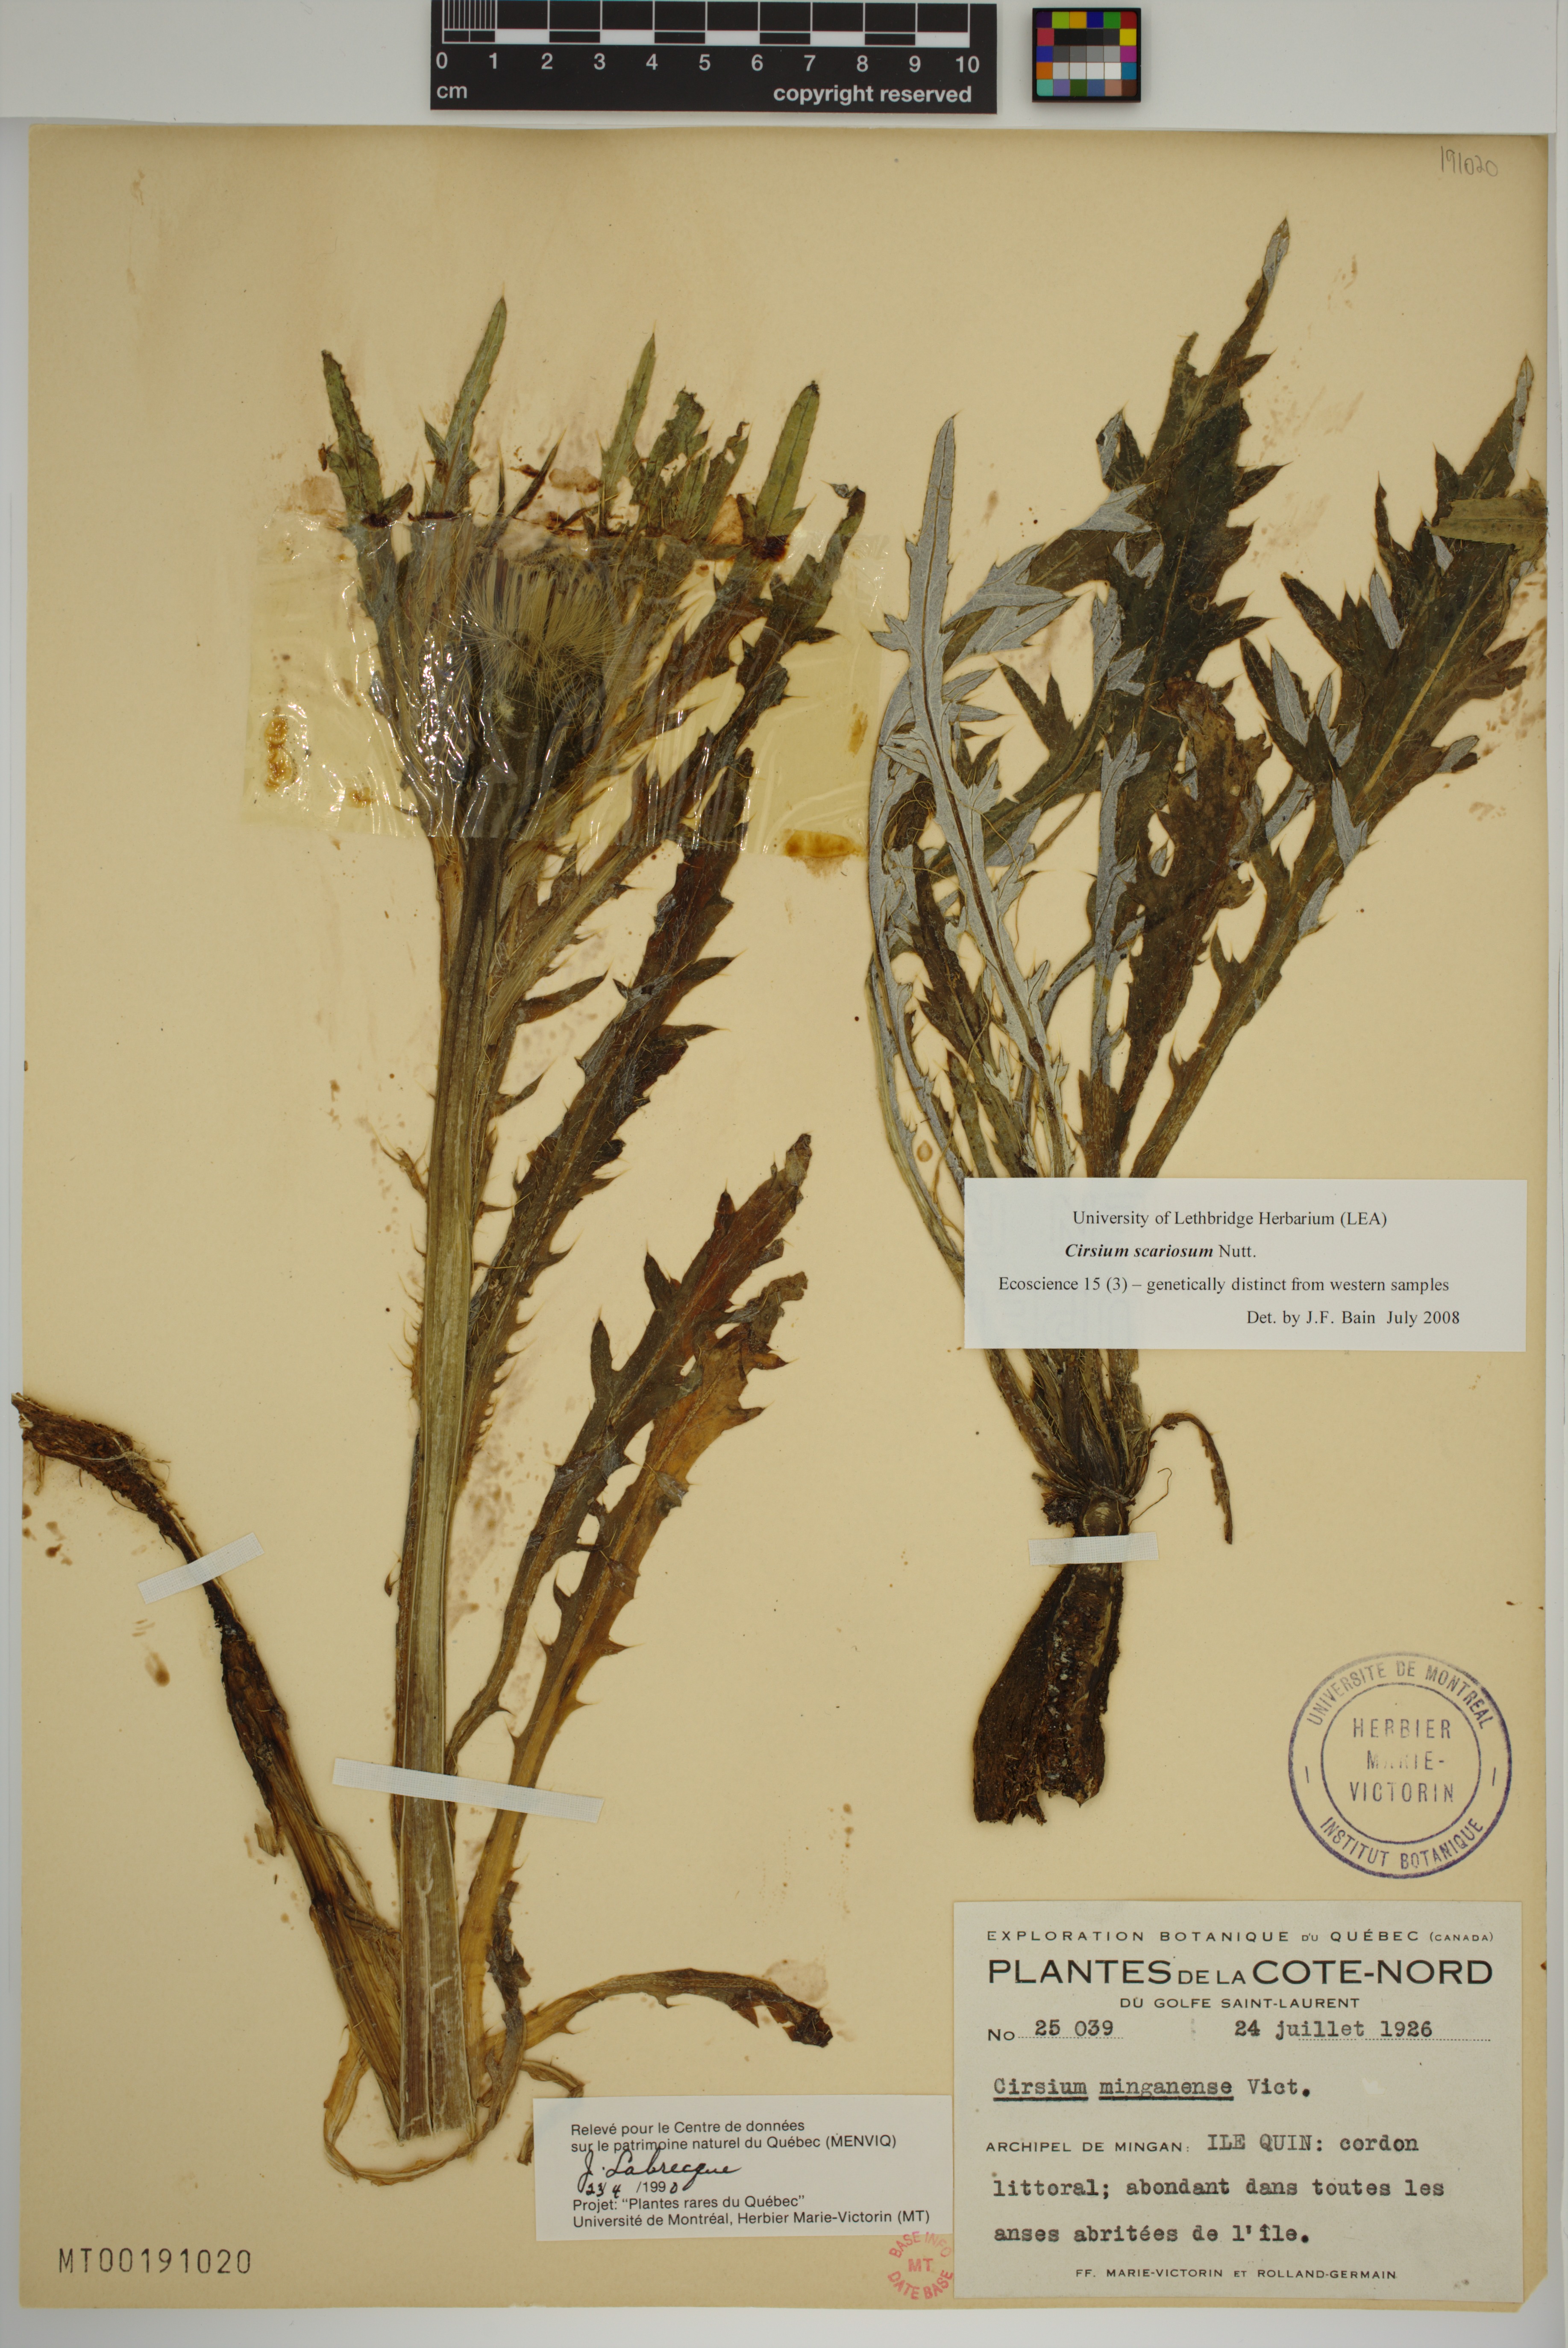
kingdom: Plantae
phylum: Tracheophyta
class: Magnoliopsida
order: Asterales
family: Asteraceae
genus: Cirsium
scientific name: Cirsium scariosum
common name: Meadow thistle
